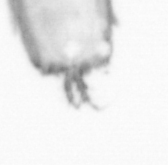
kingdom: Animalia
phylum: Arthropoda
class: Copepoda
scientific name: Copepoda
